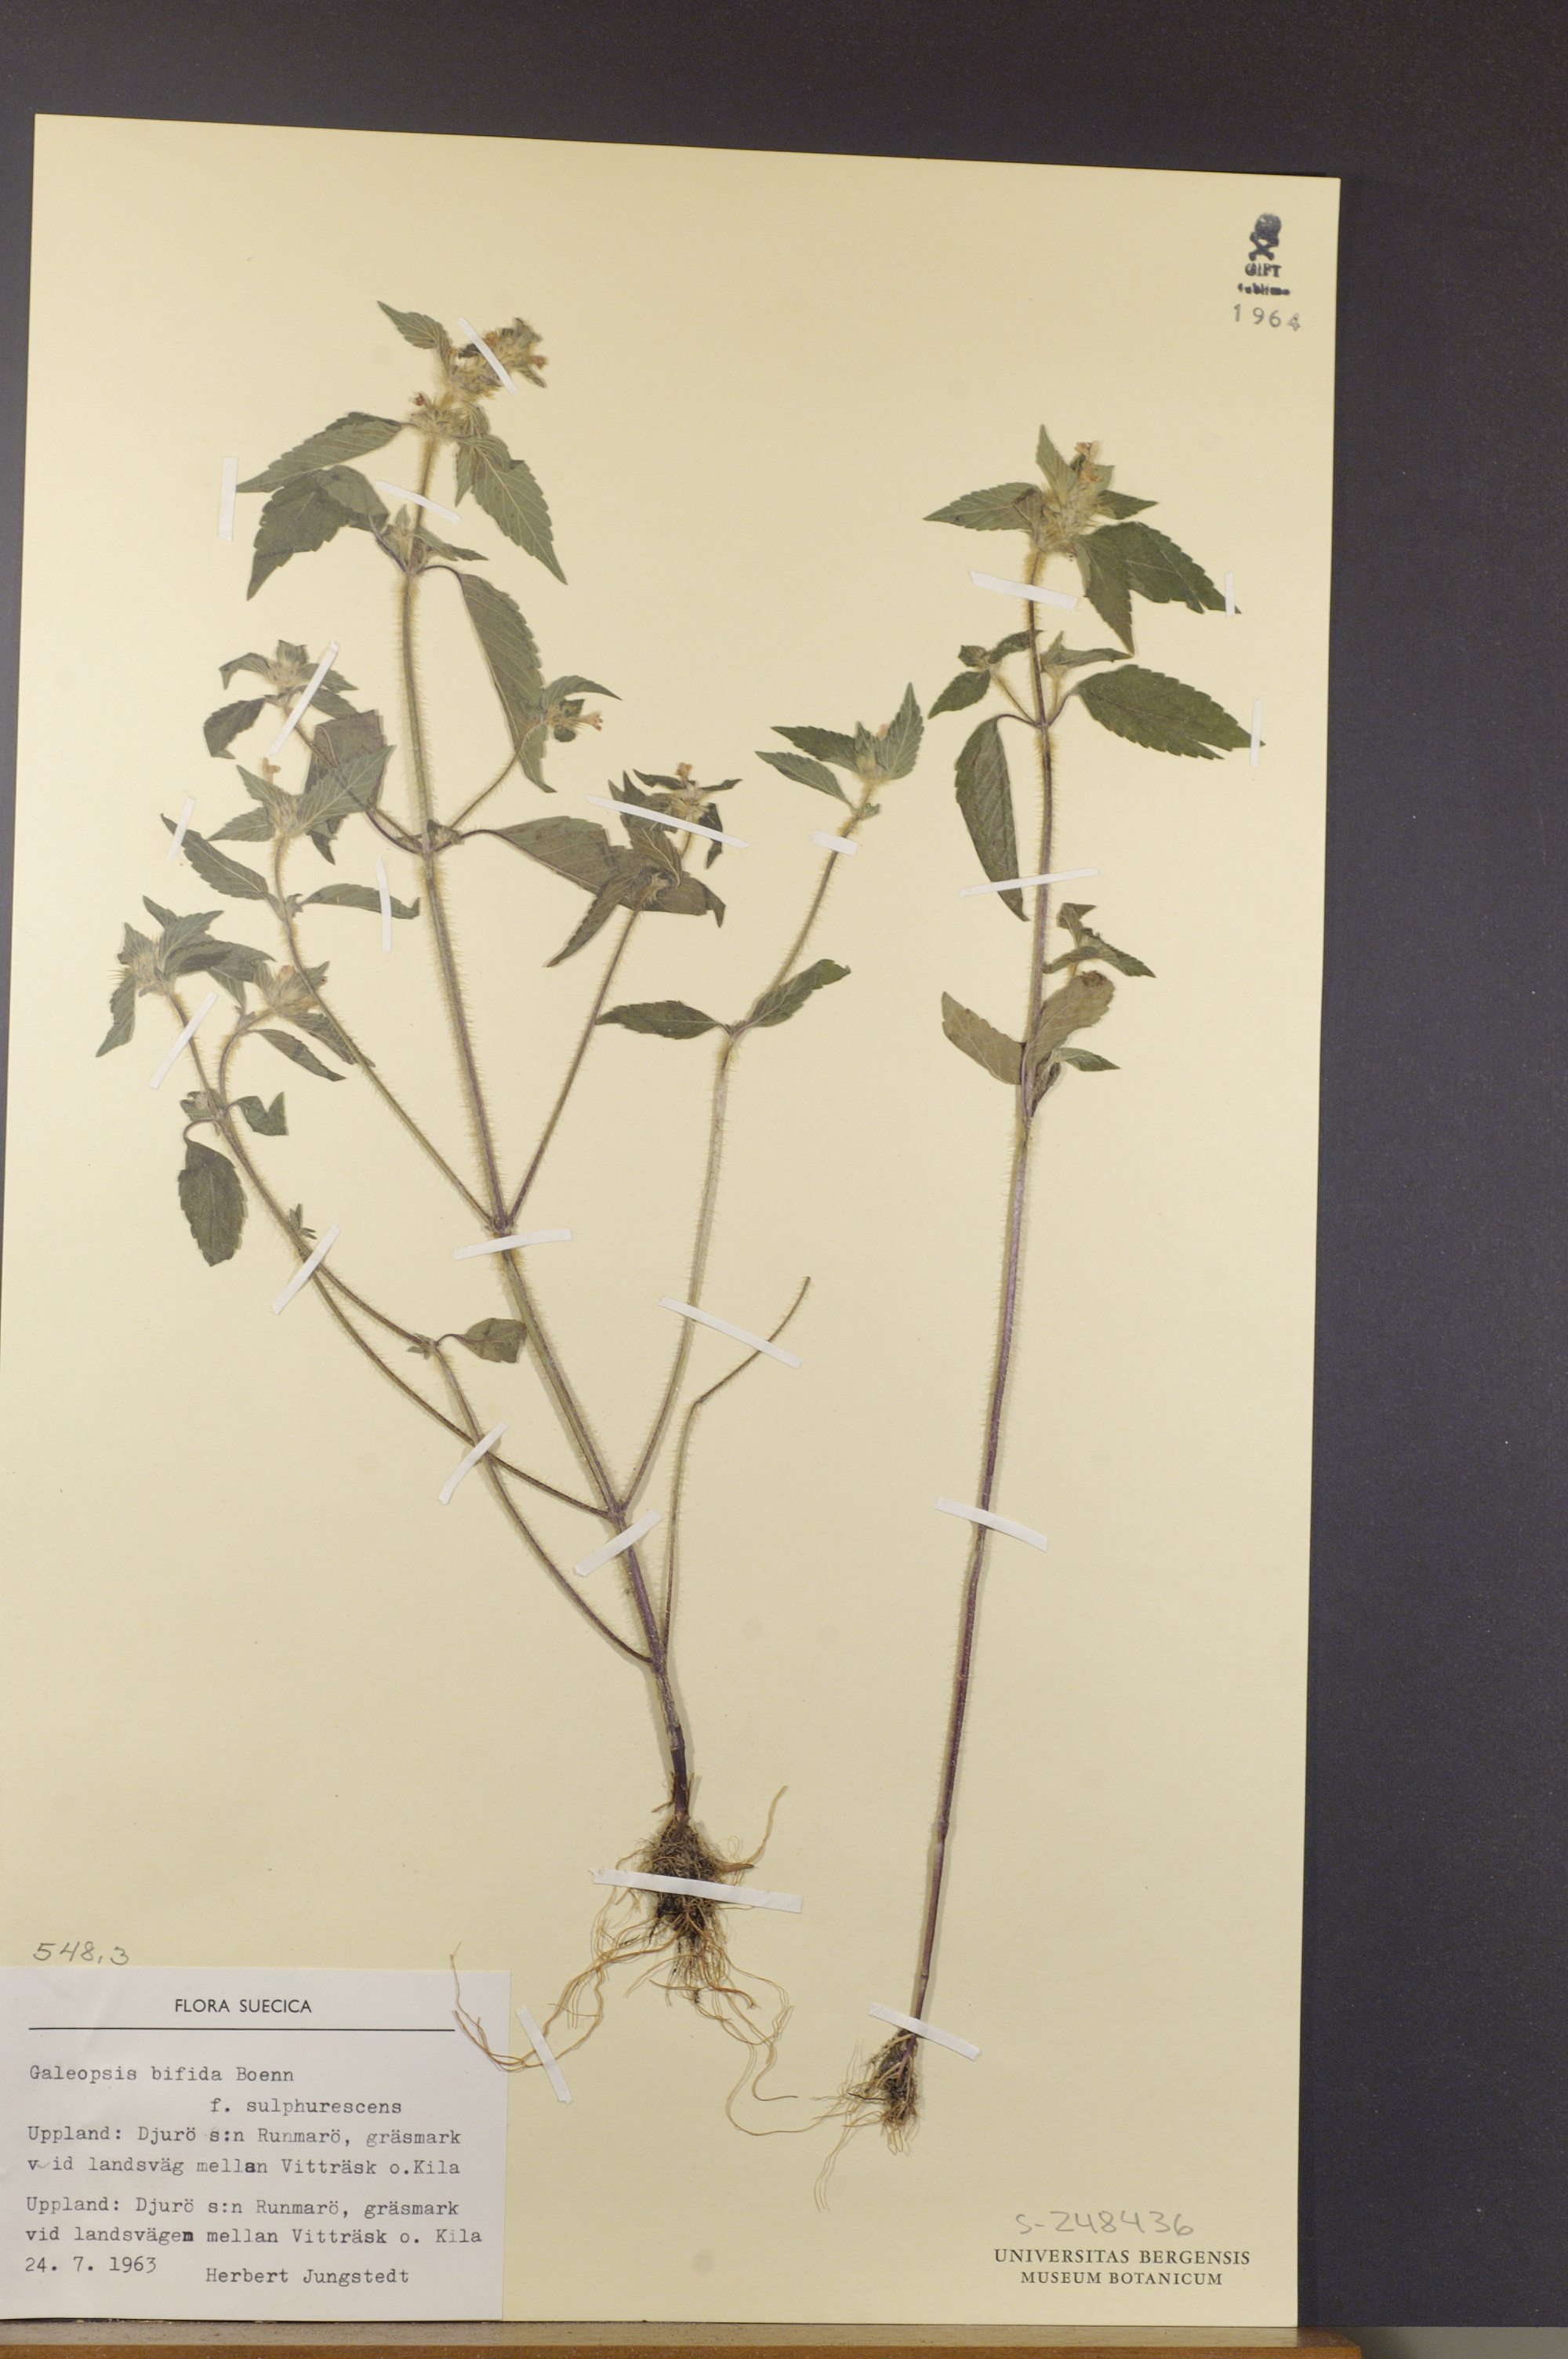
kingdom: Plantae
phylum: Tracheophyta
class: Magnoliopsida
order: Lamiales
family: Lamiaceae
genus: Galeopsis
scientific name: Galeopsis bifida
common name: Bifid hemp-nettle
